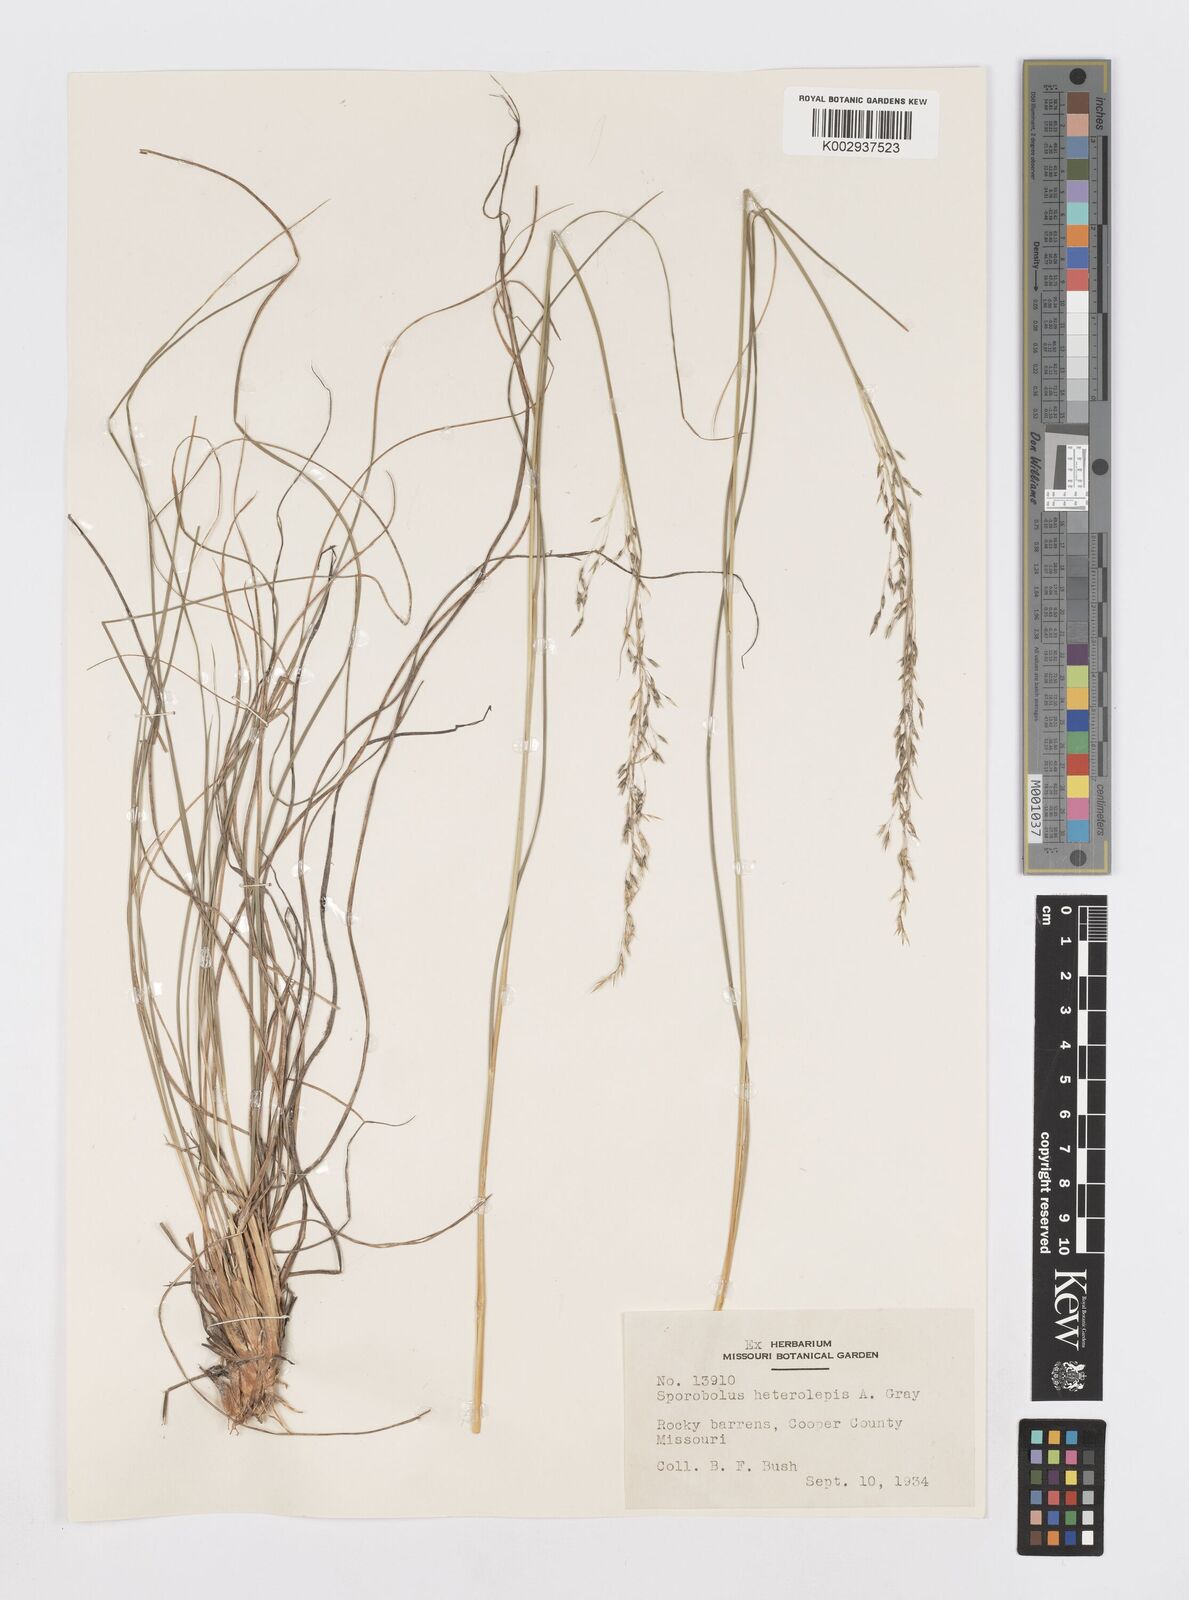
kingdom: Plantae
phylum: Tracheophyta
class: Liliopsida
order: Poales
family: Poaceae
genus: Sporobolus
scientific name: Sporobolus heterolepis
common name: Prairie dropseed
